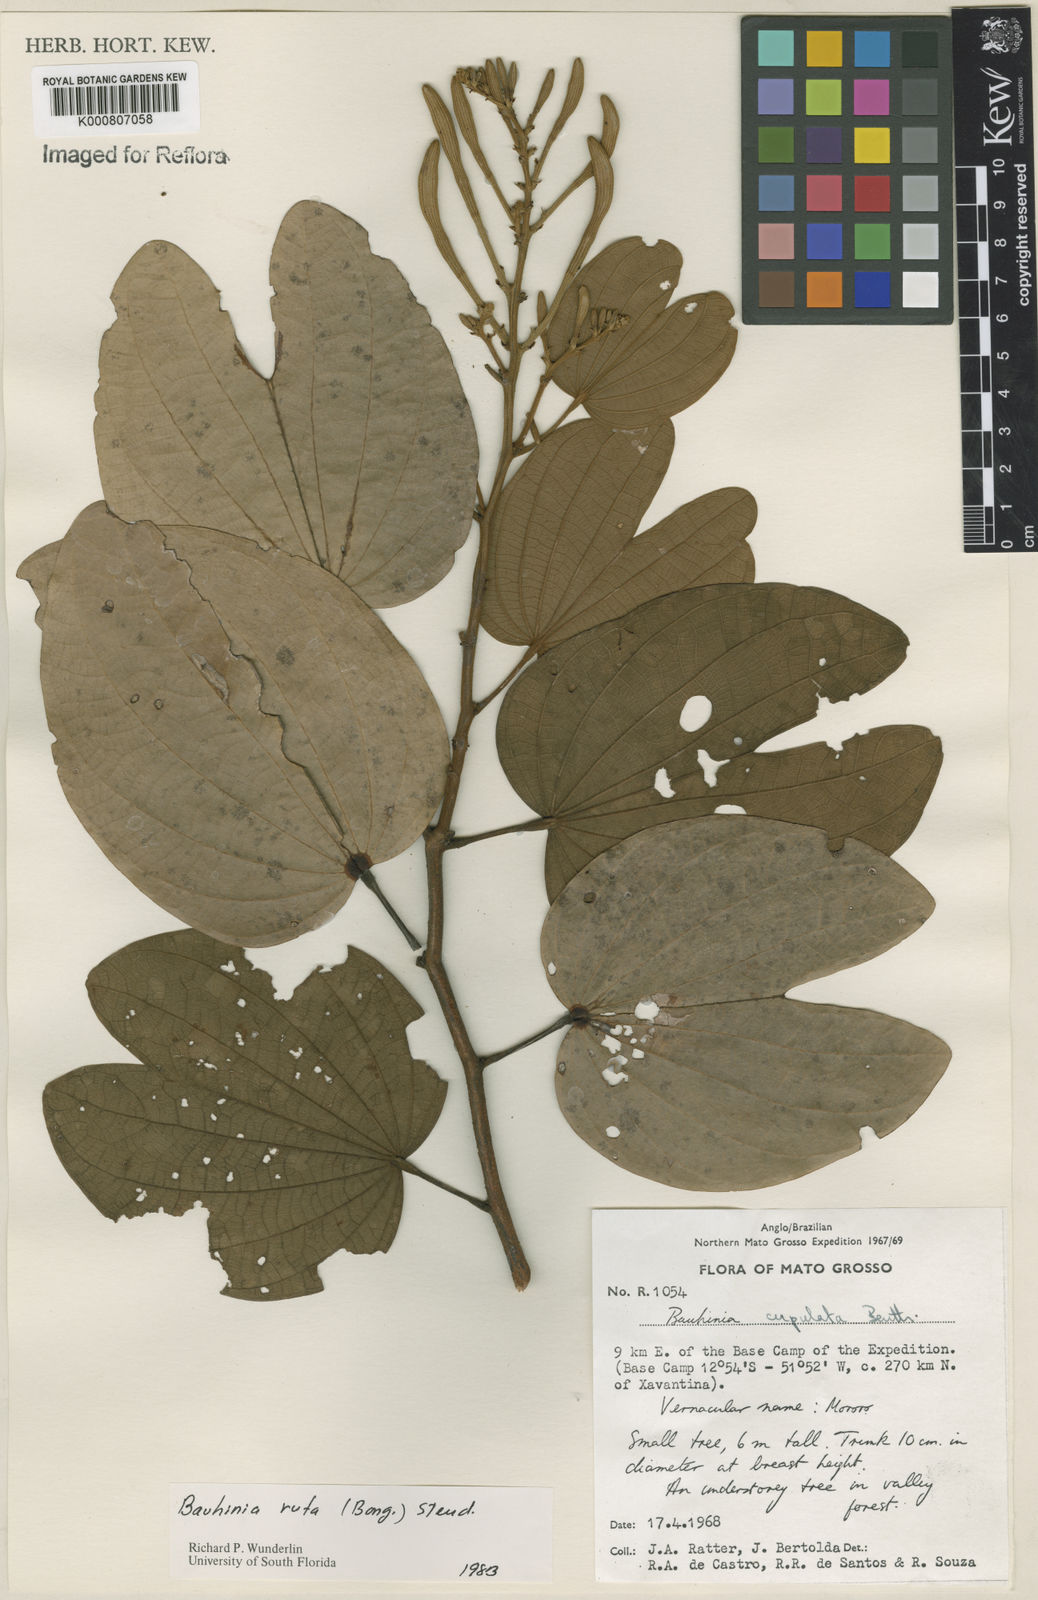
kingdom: Plantae
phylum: Tracheophyta
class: Magnoliopsida
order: Fabales
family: Fabaceae
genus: Bauhinia
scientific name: Bauhinia rufa
